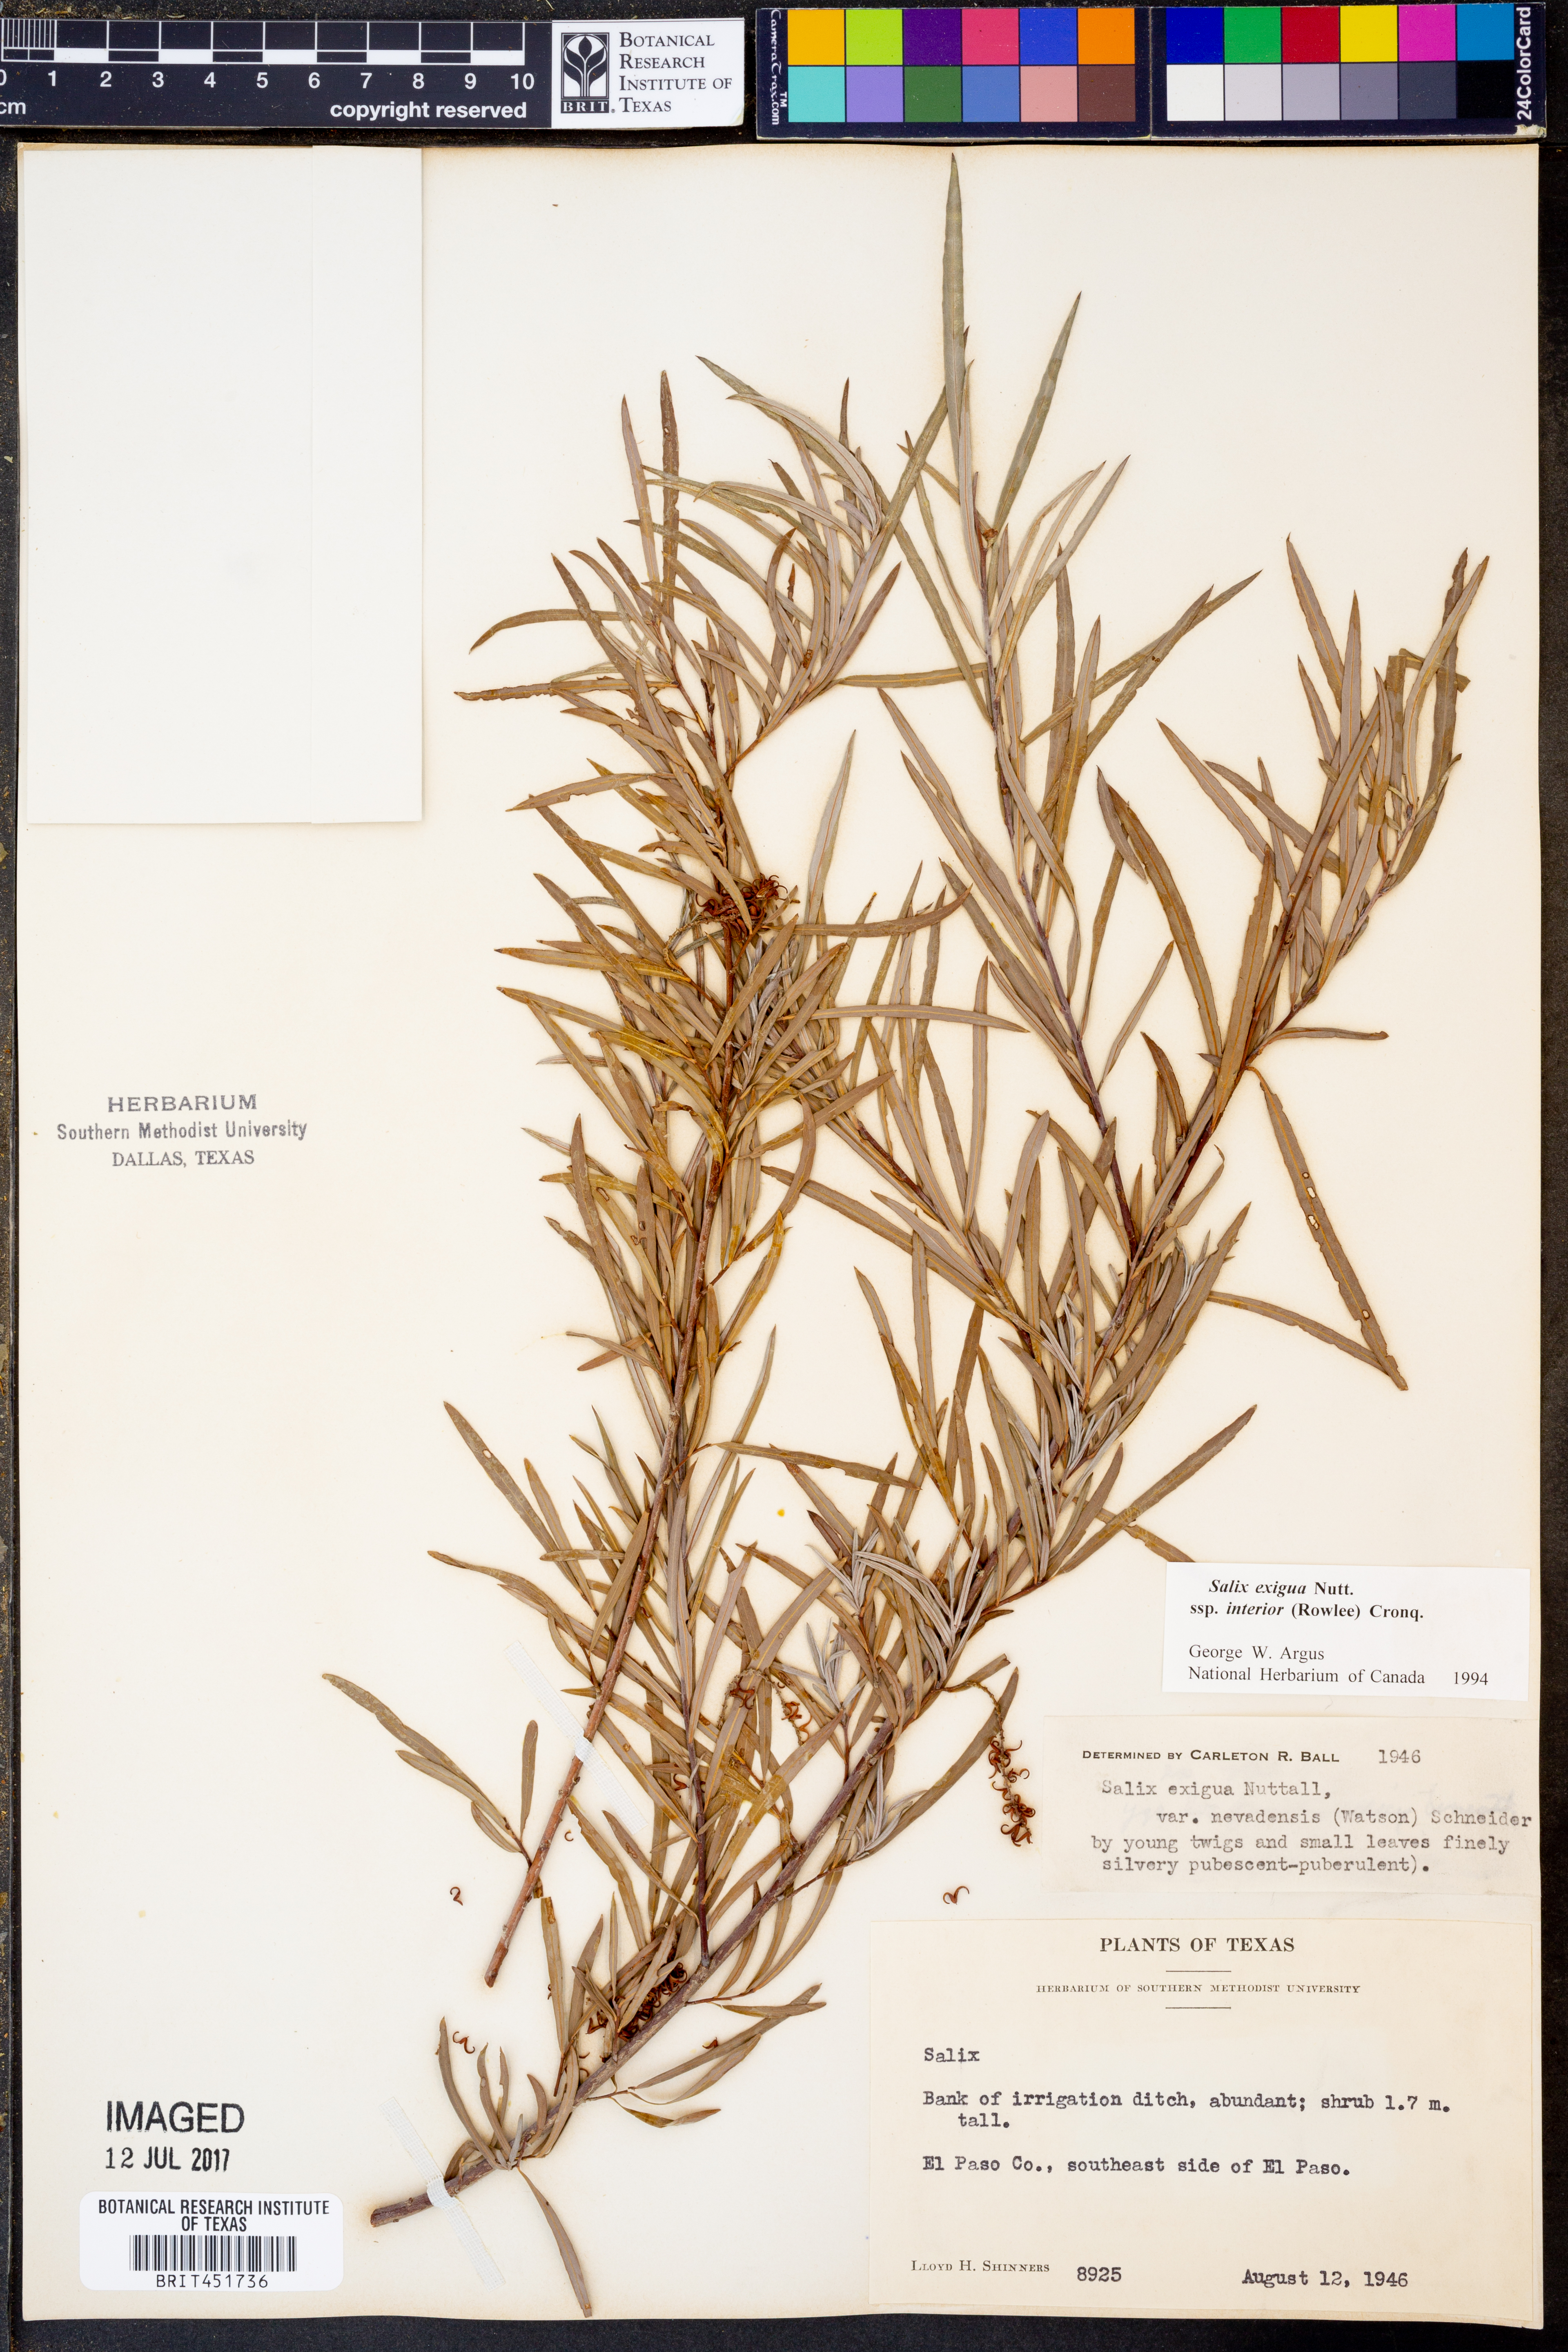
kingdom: Plantae
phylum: Tracheophyta
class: Magnoliopsida
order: Malpighiales
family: Salicaceae
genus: Salix
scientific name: Salix interior
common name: Sandbar willow
